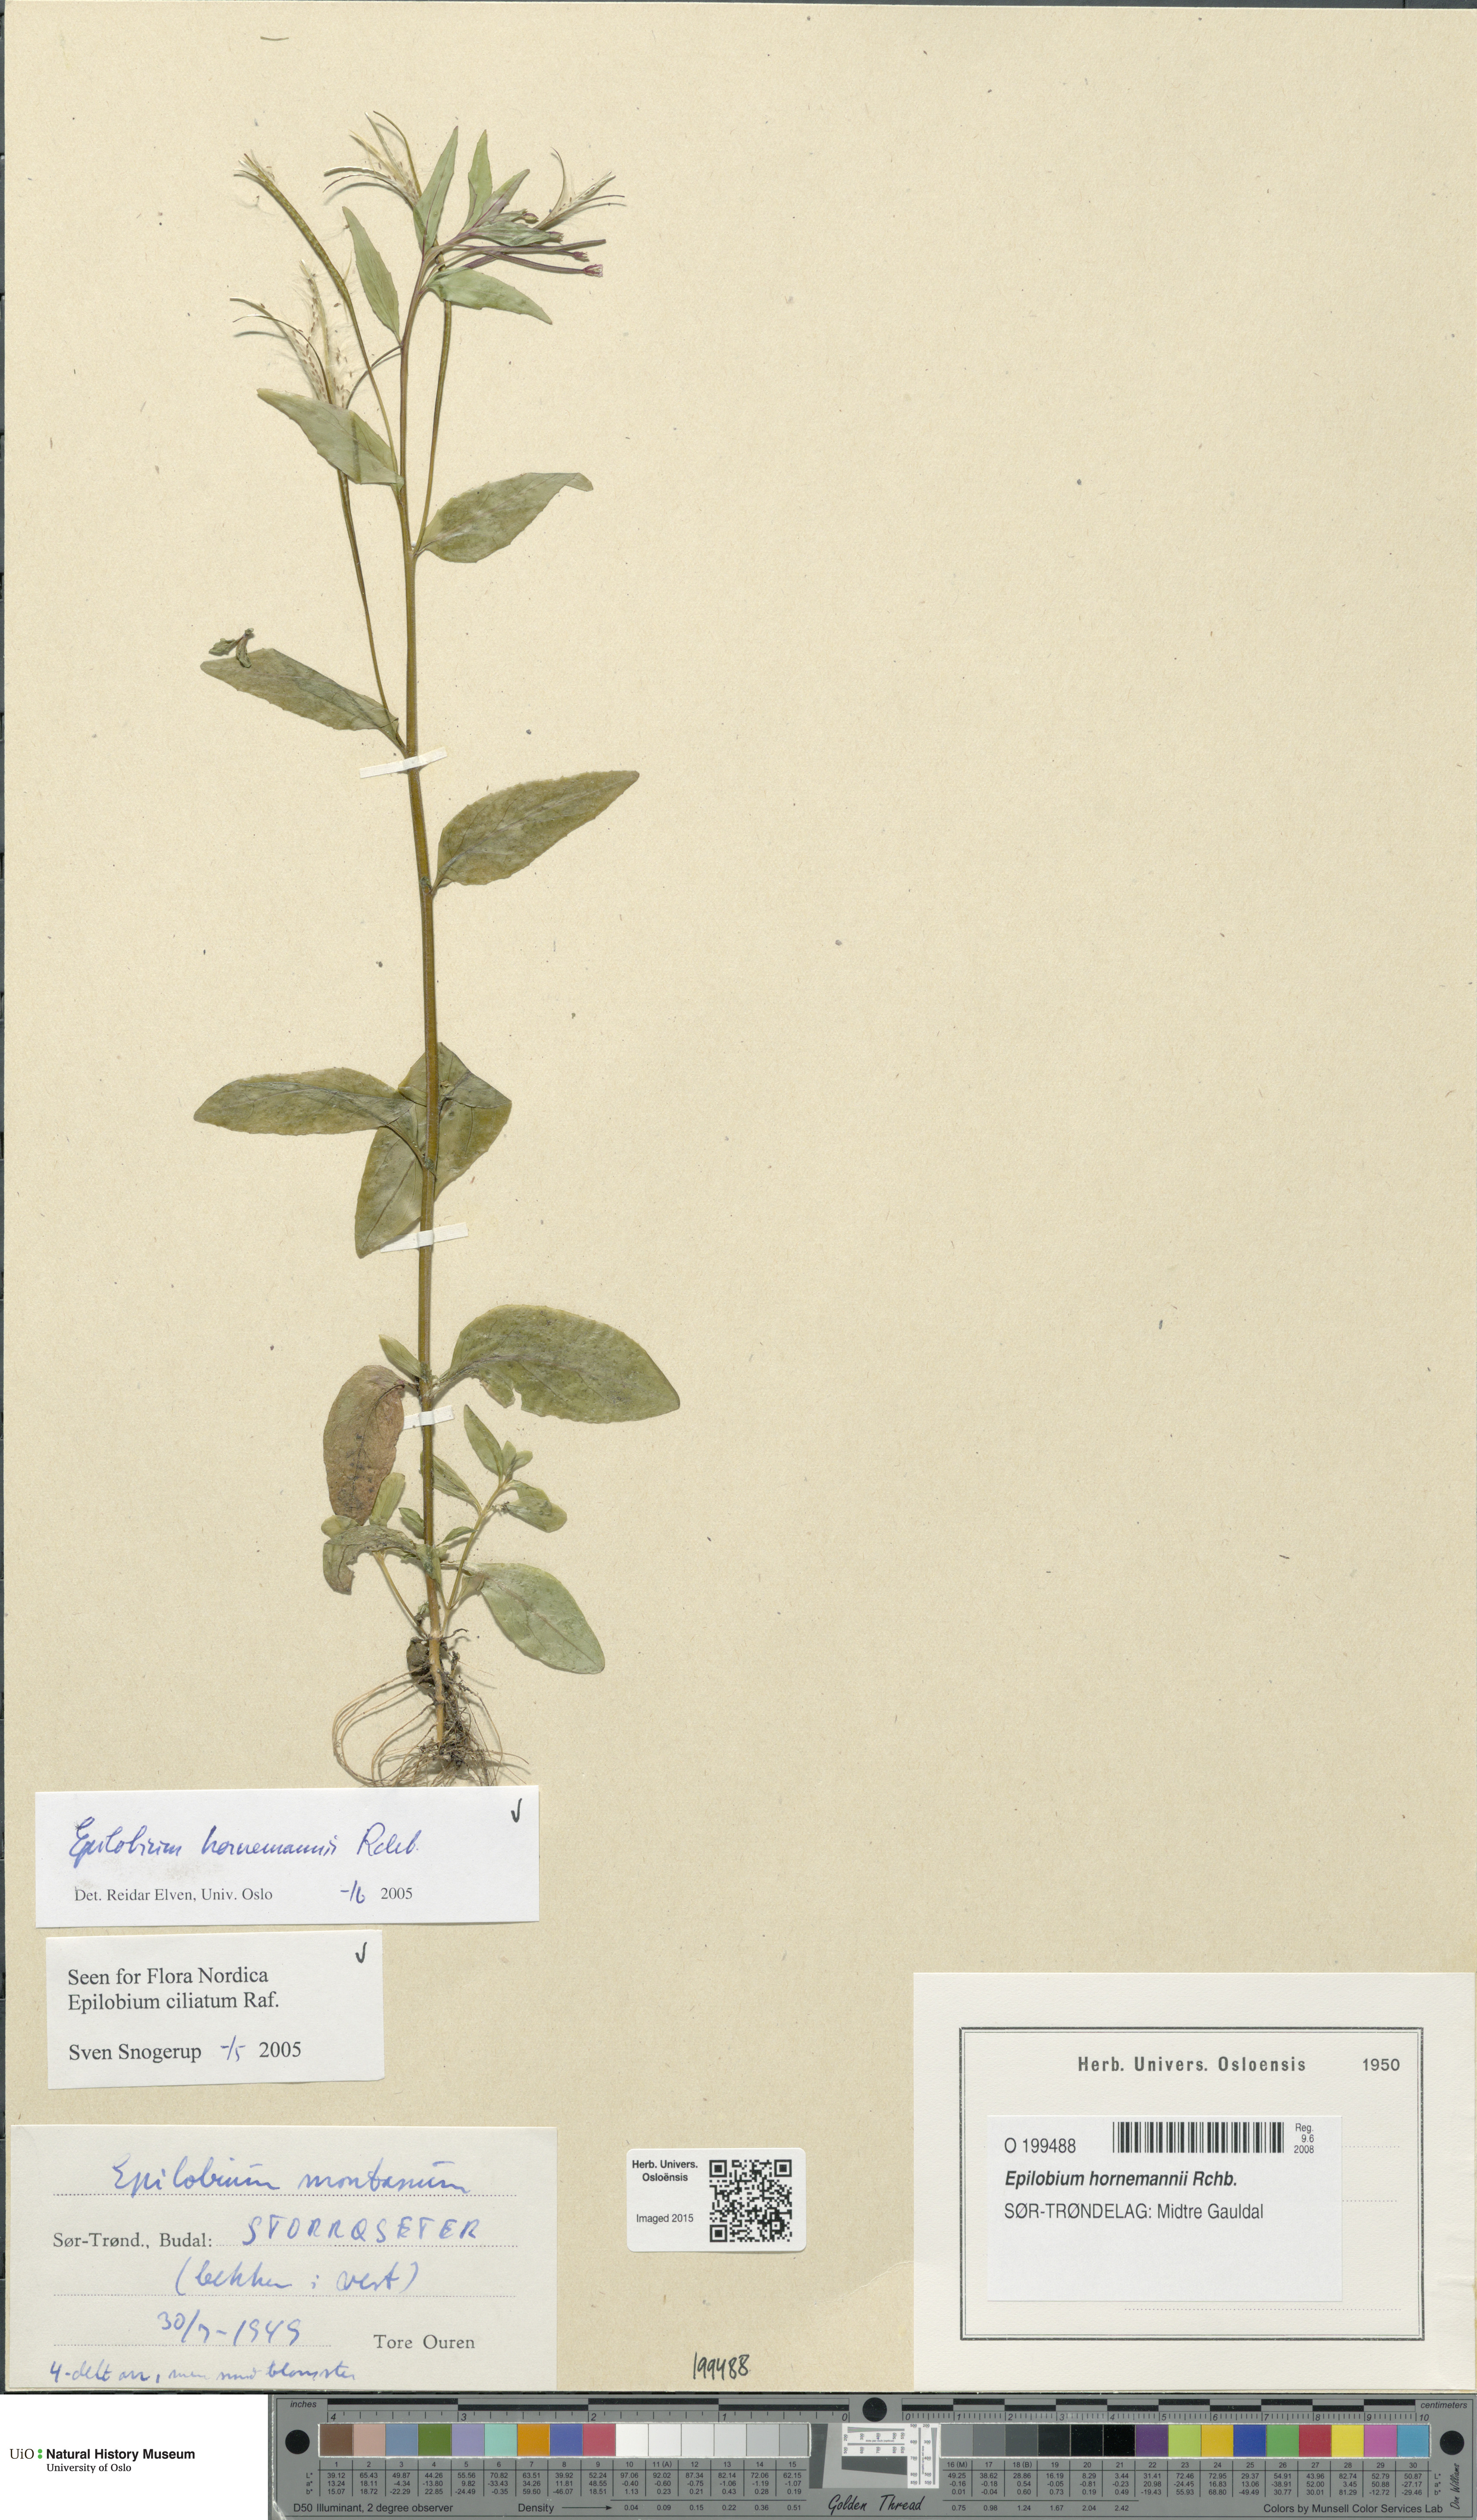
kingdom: Plantae
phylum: Tracheophyta
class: Magnoliopsida
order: Myrtales
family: Onagraceae
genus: Epilobium
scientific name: Epilobium hornemannii
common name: Hornemann's willowherb
